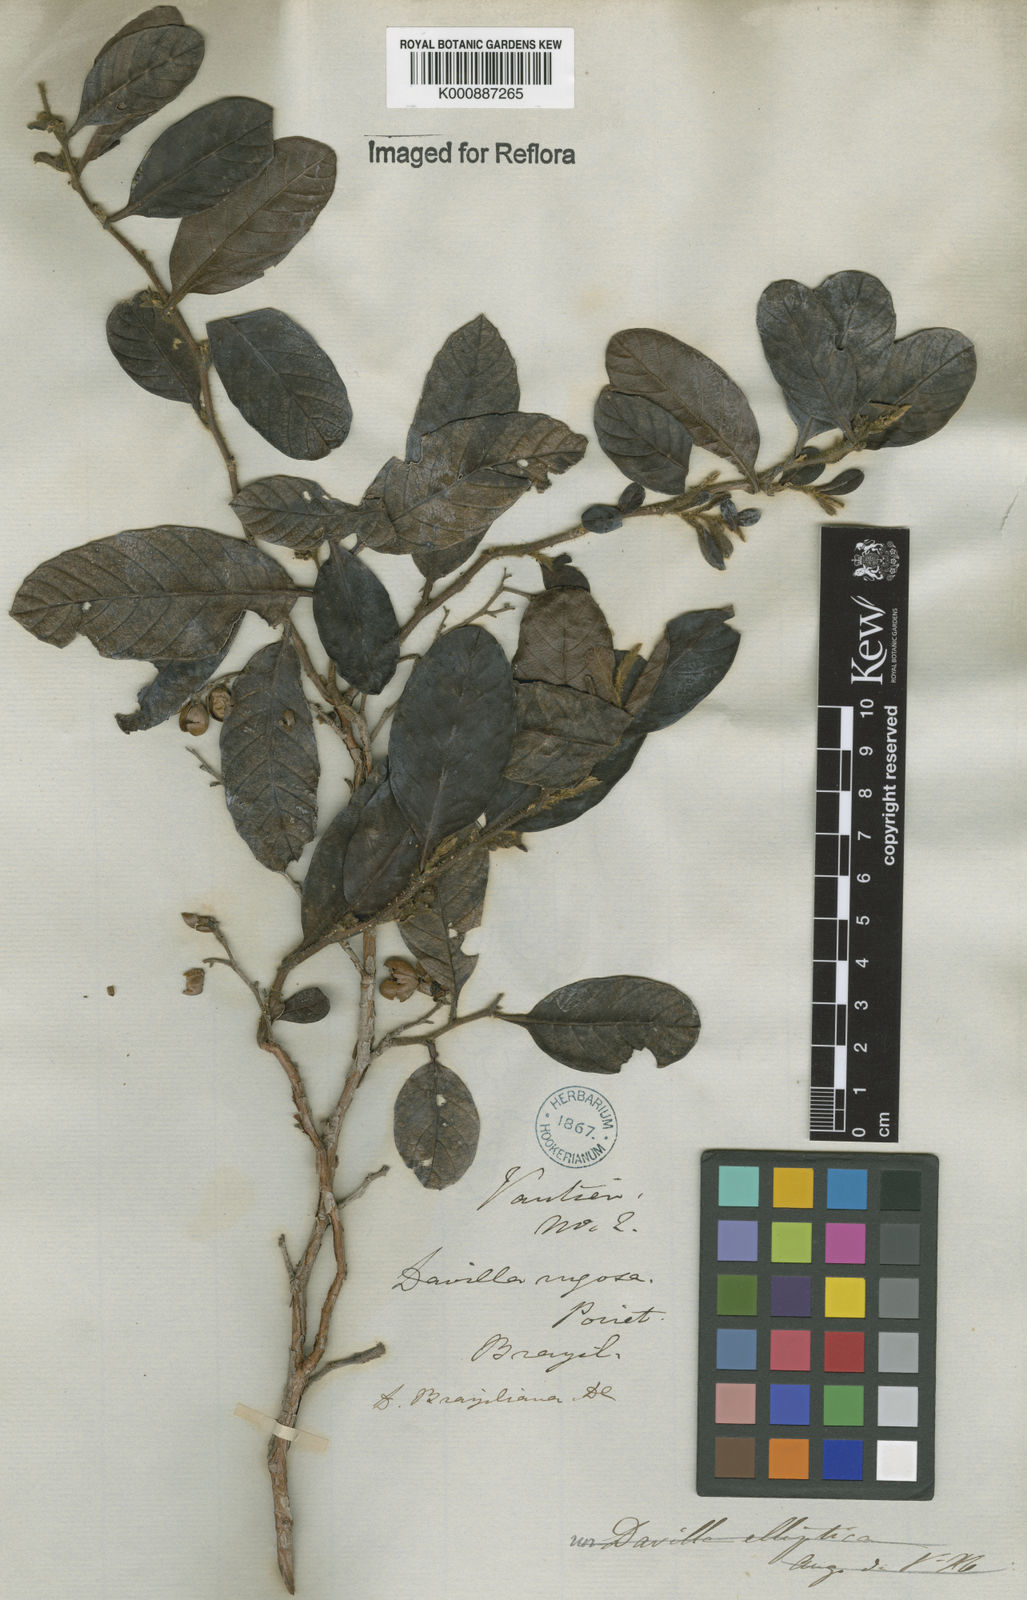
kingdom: Plantae
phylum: Tracheophyta
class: Magnoliopsida
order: Dilleniales
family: Dilleniaceae
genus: Davilla
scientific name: Davilla rugosa
